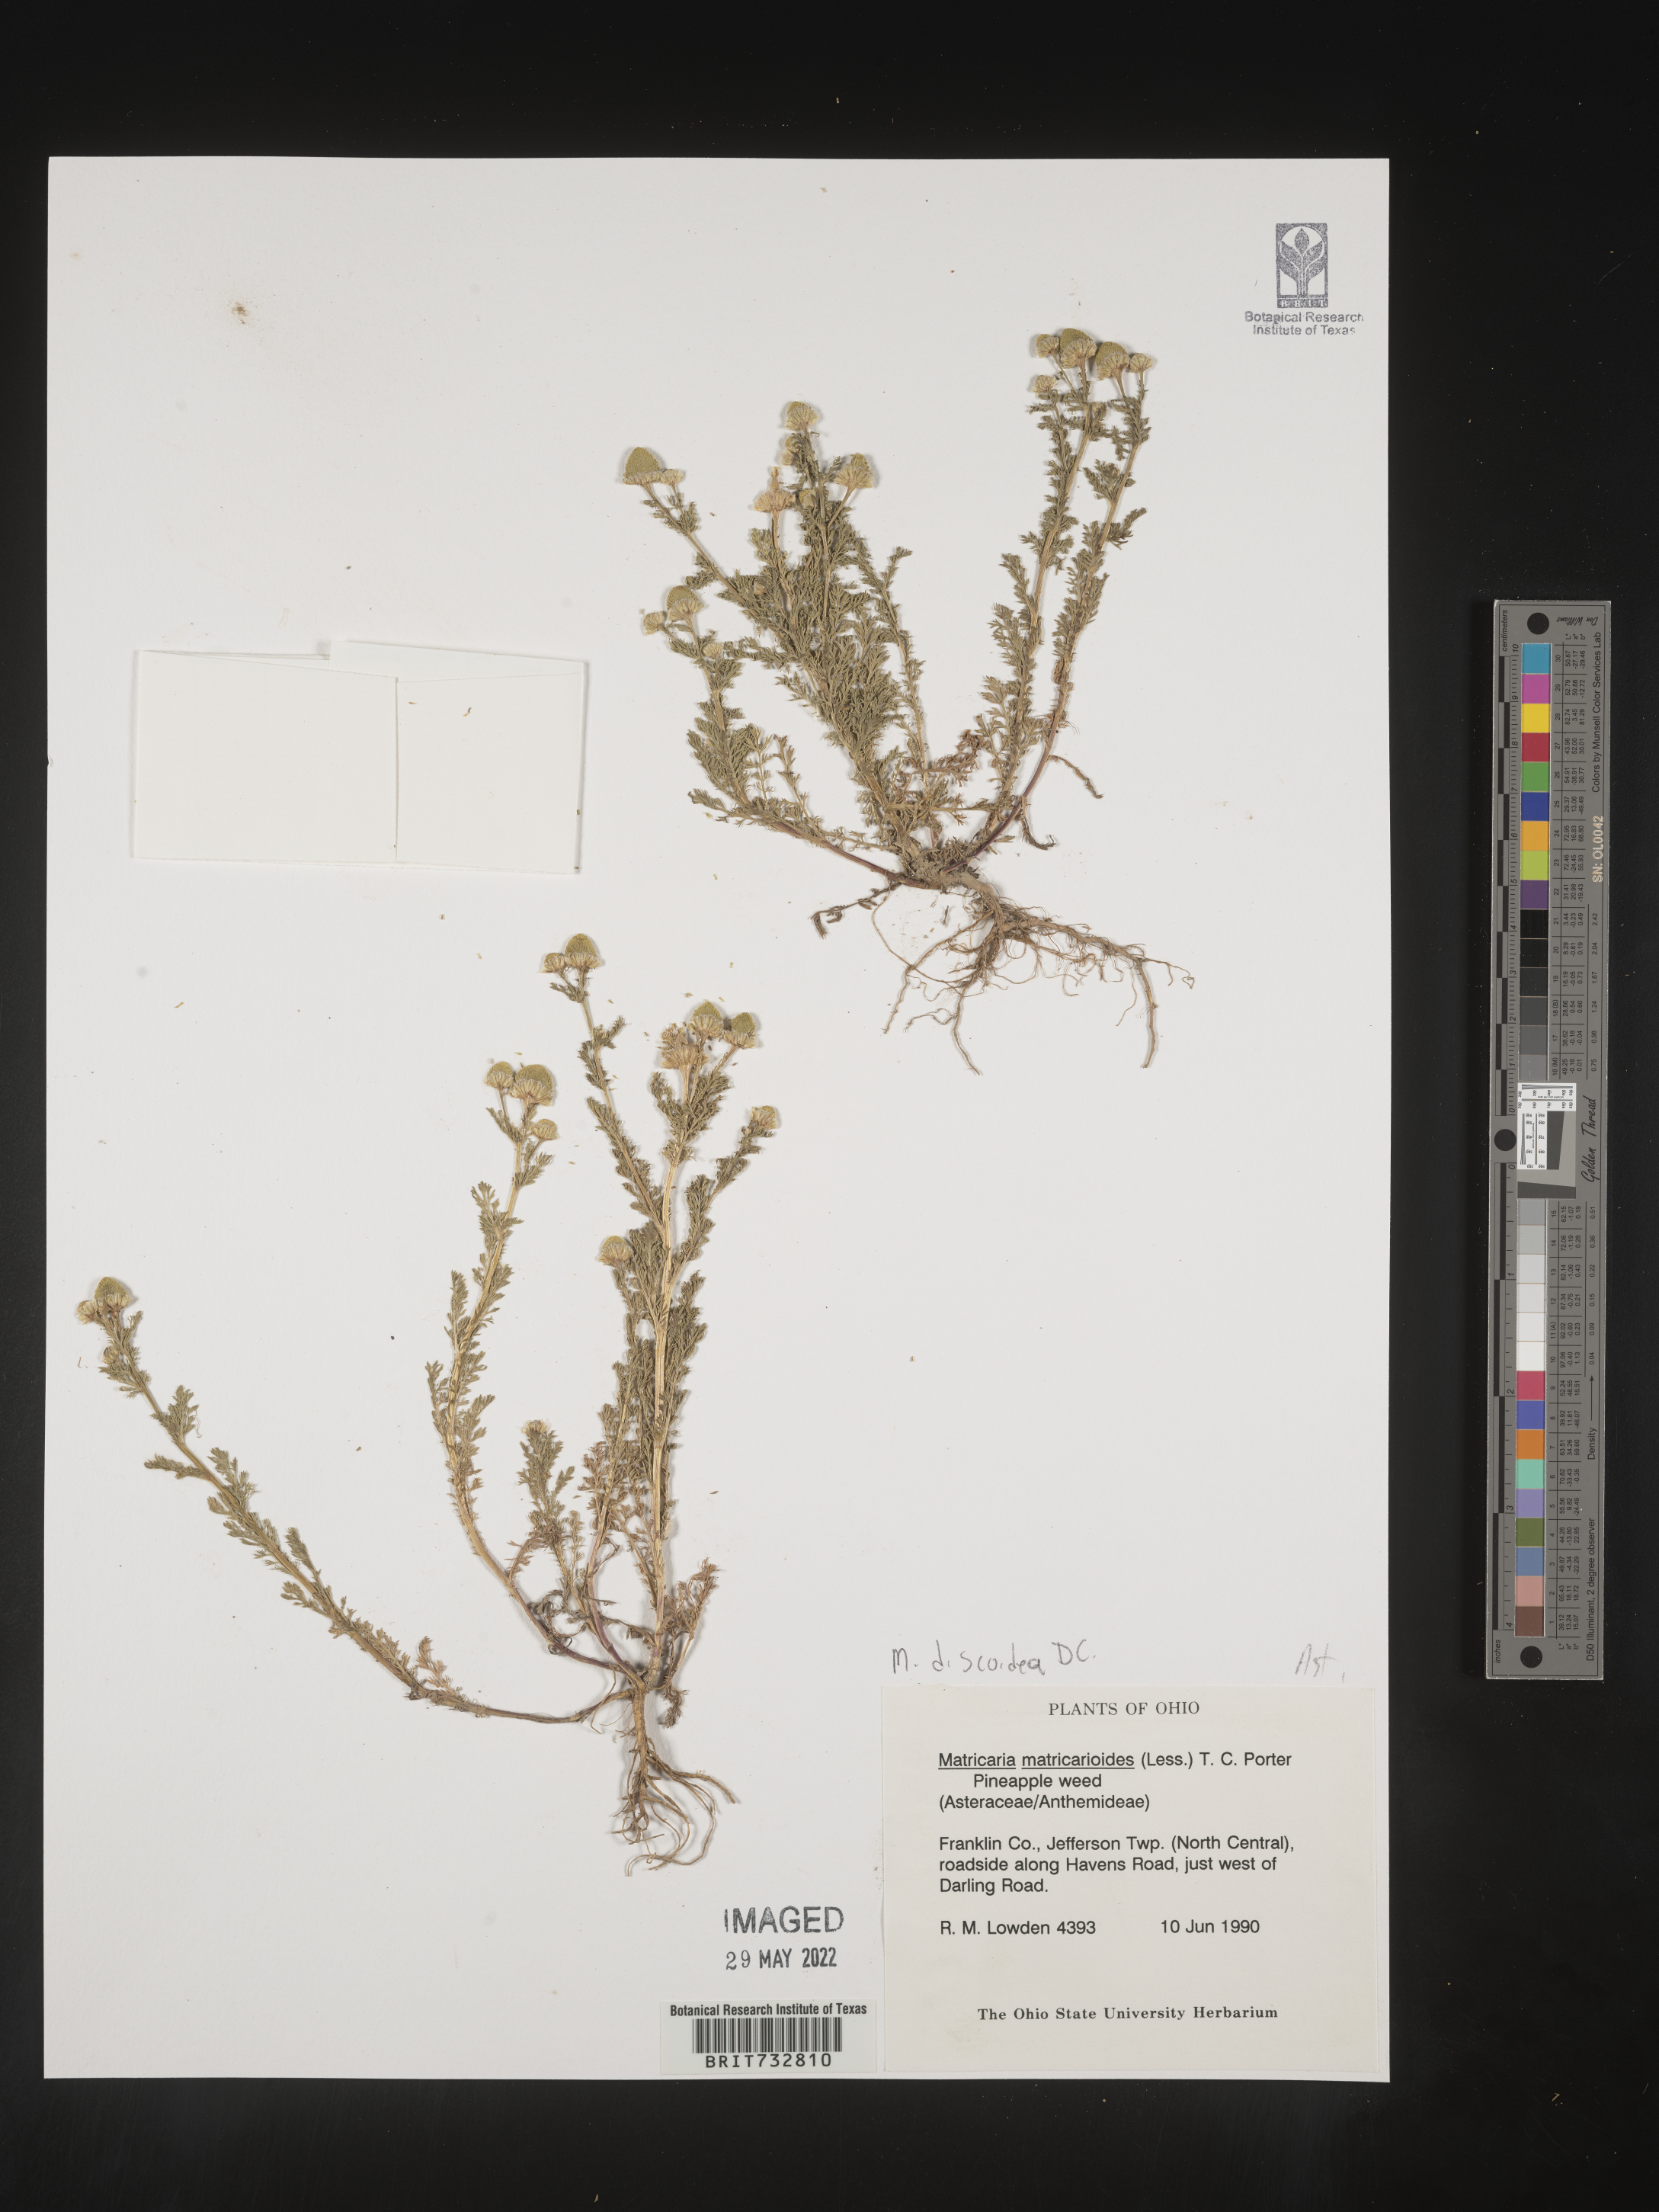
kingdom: Plantae
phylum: Tracheophyta
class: Magnoliopsida
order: Asterales
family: Asteraceae
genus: Matricaria
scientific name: Matricaria discoidea
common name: Disc mayweed
